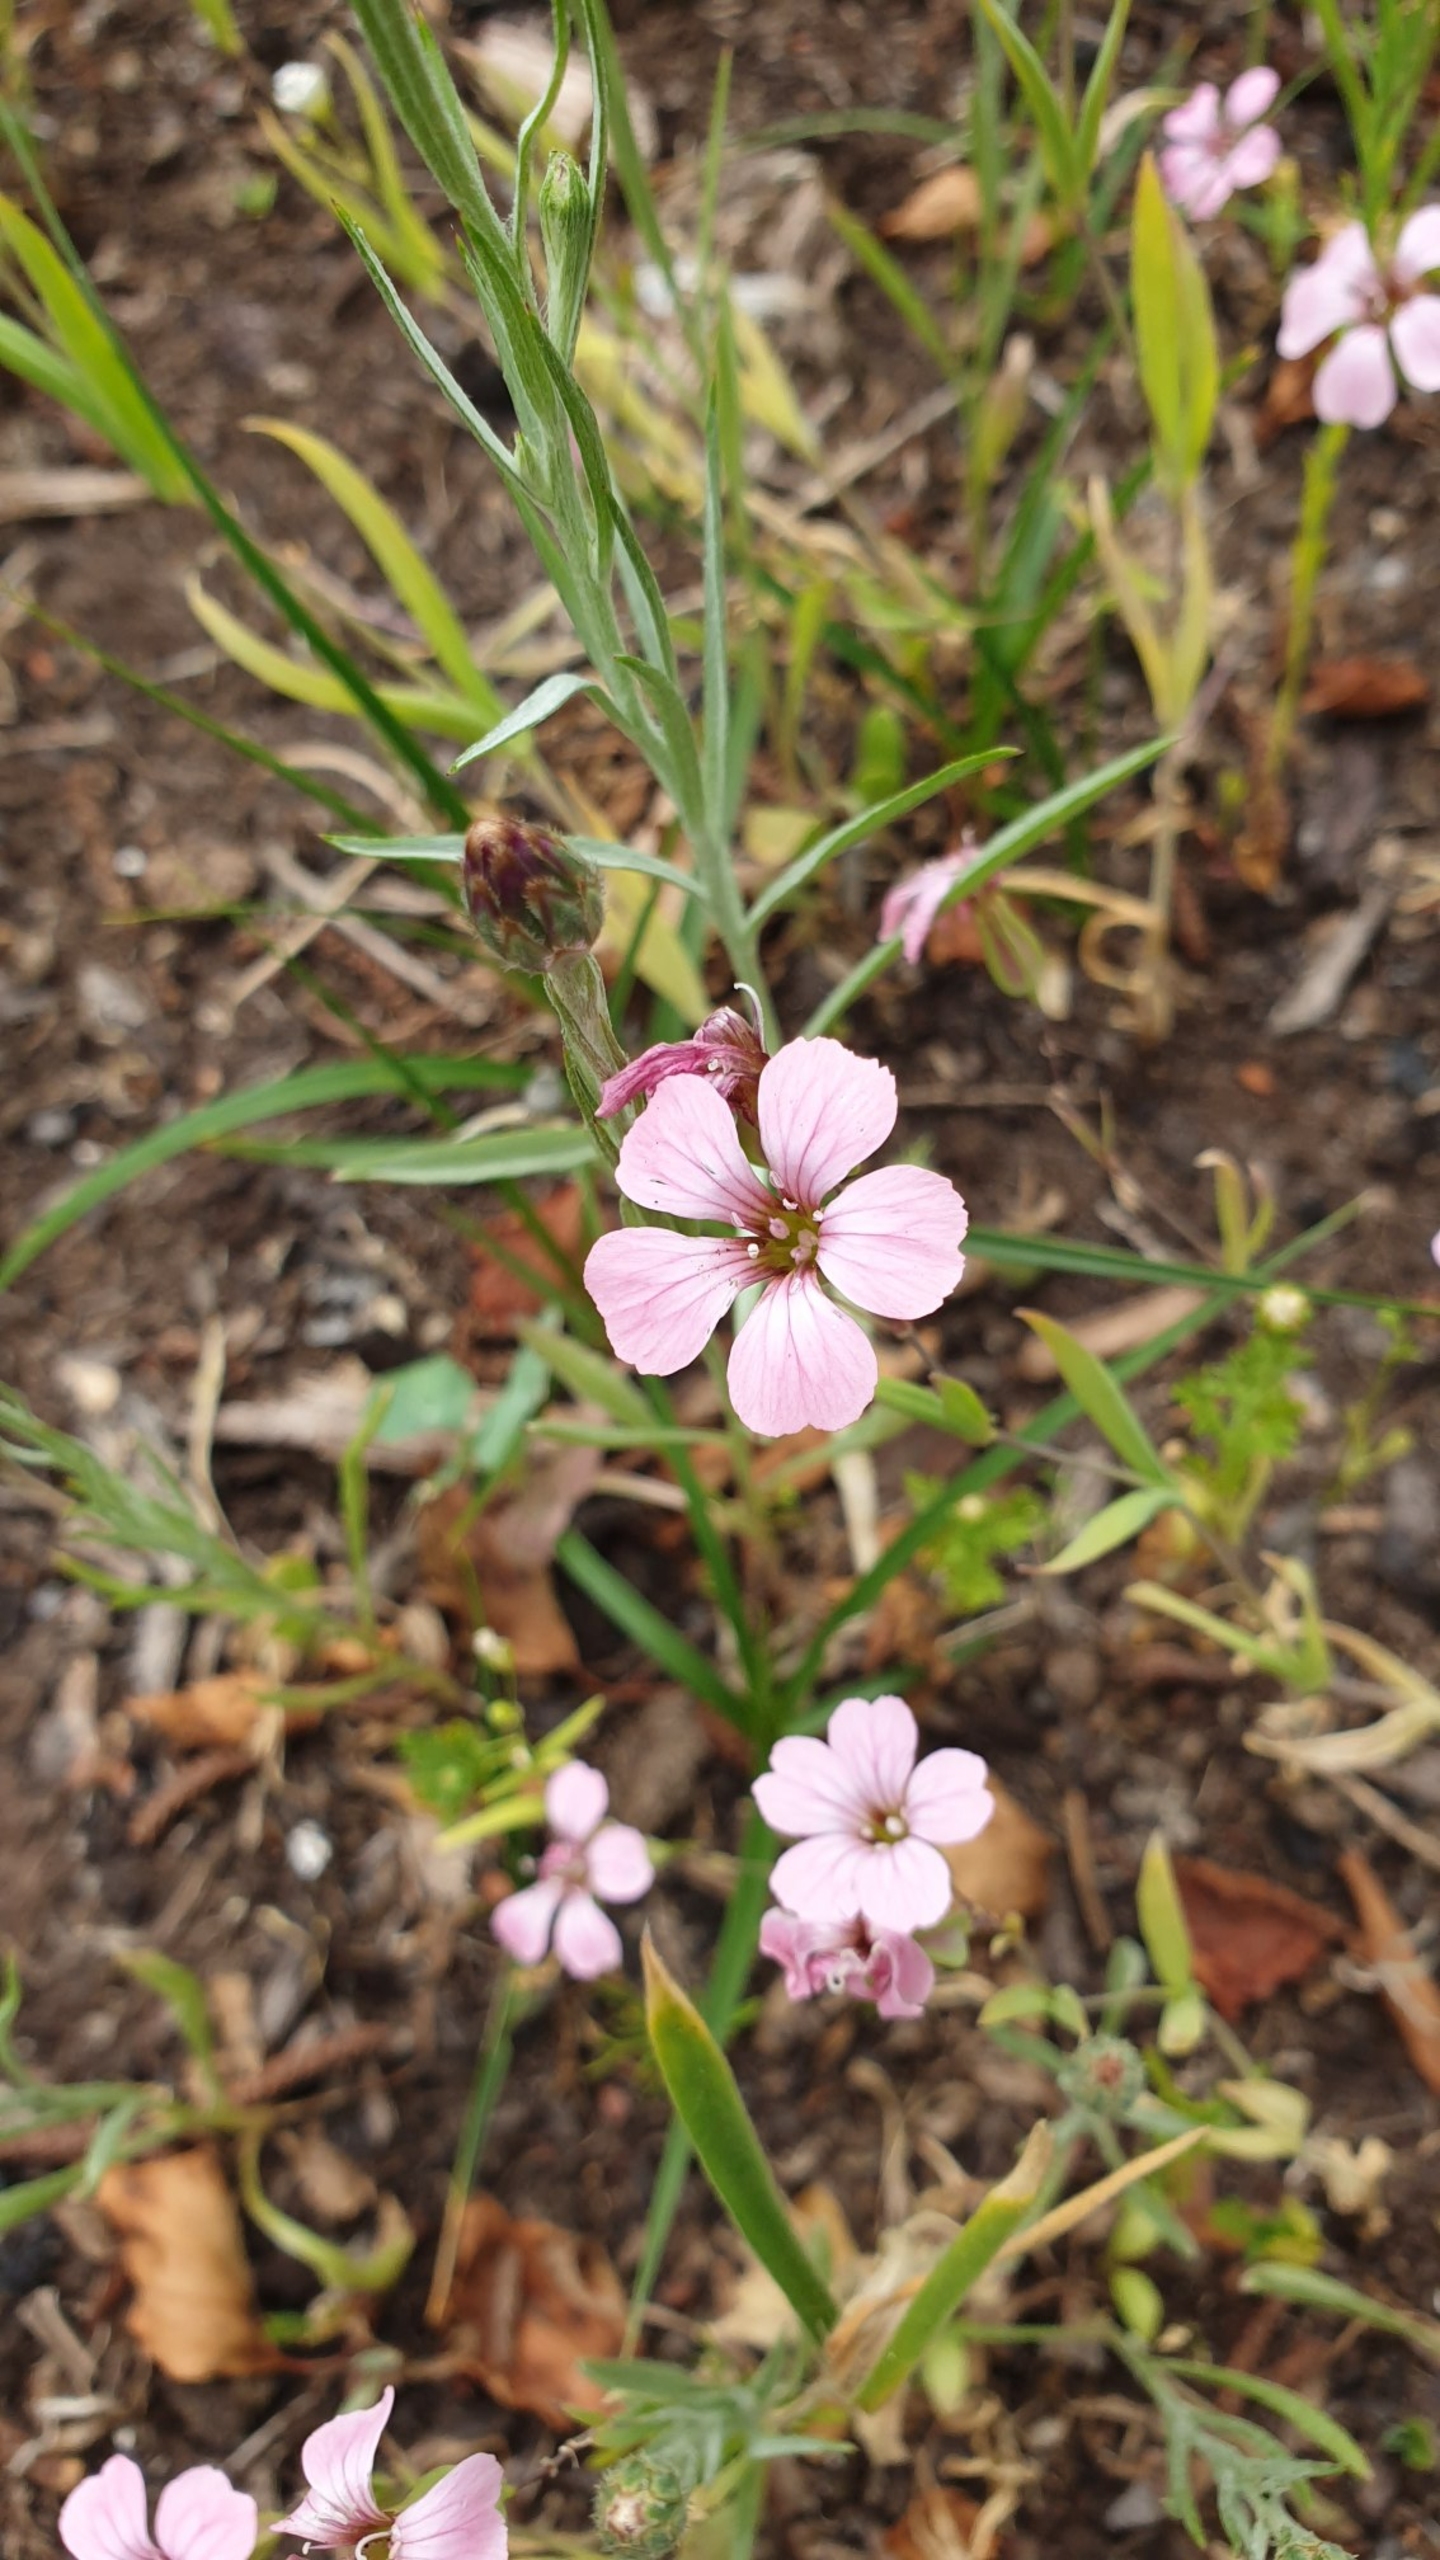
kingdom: Plantae
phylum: Tracheophyta
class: Magnoliopsida
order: Caryophyllales
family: Caryophyllaceae
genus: Petrorhagia
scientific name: Petrorhagia saxifraga
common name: Fjeld-knopnellike
